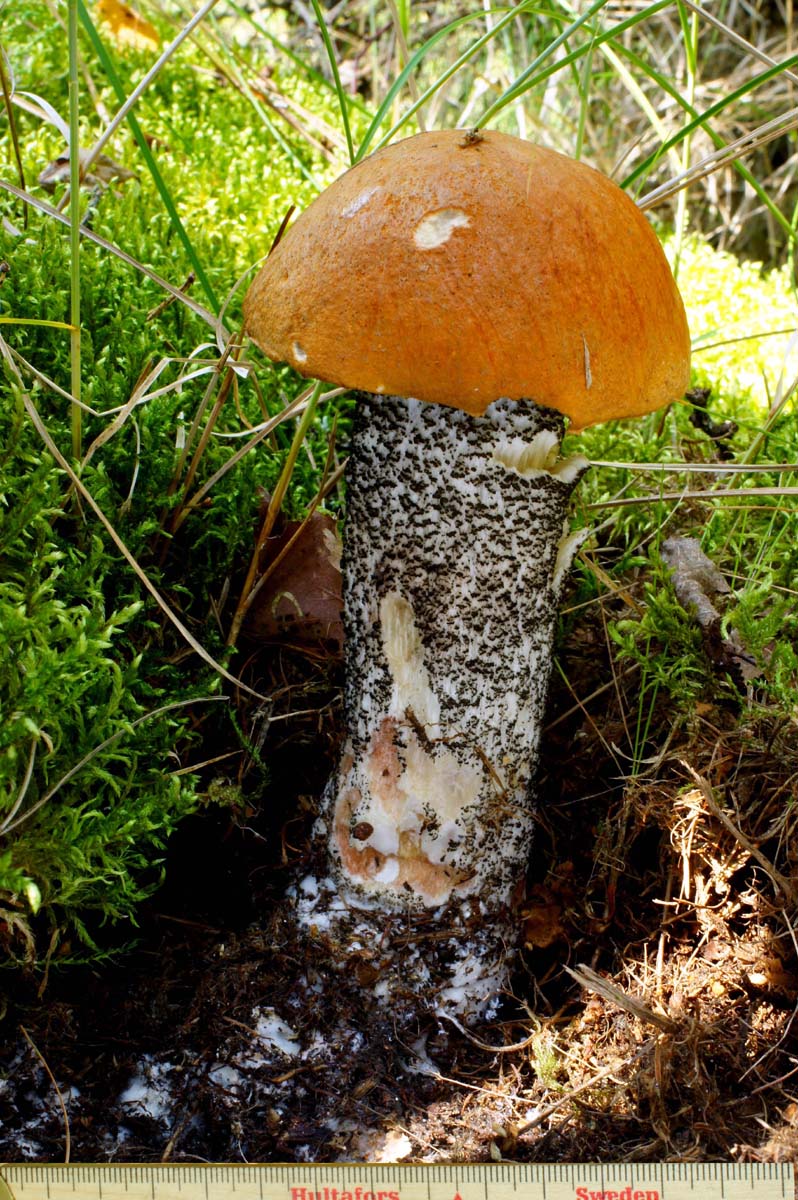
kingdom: Fungi
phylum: Basidiomycota
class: Agaricomycetes
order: Boletales
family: Boletaceae
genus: Leccinum
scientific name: Leccinum versipelle
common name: orange skælrørhat
